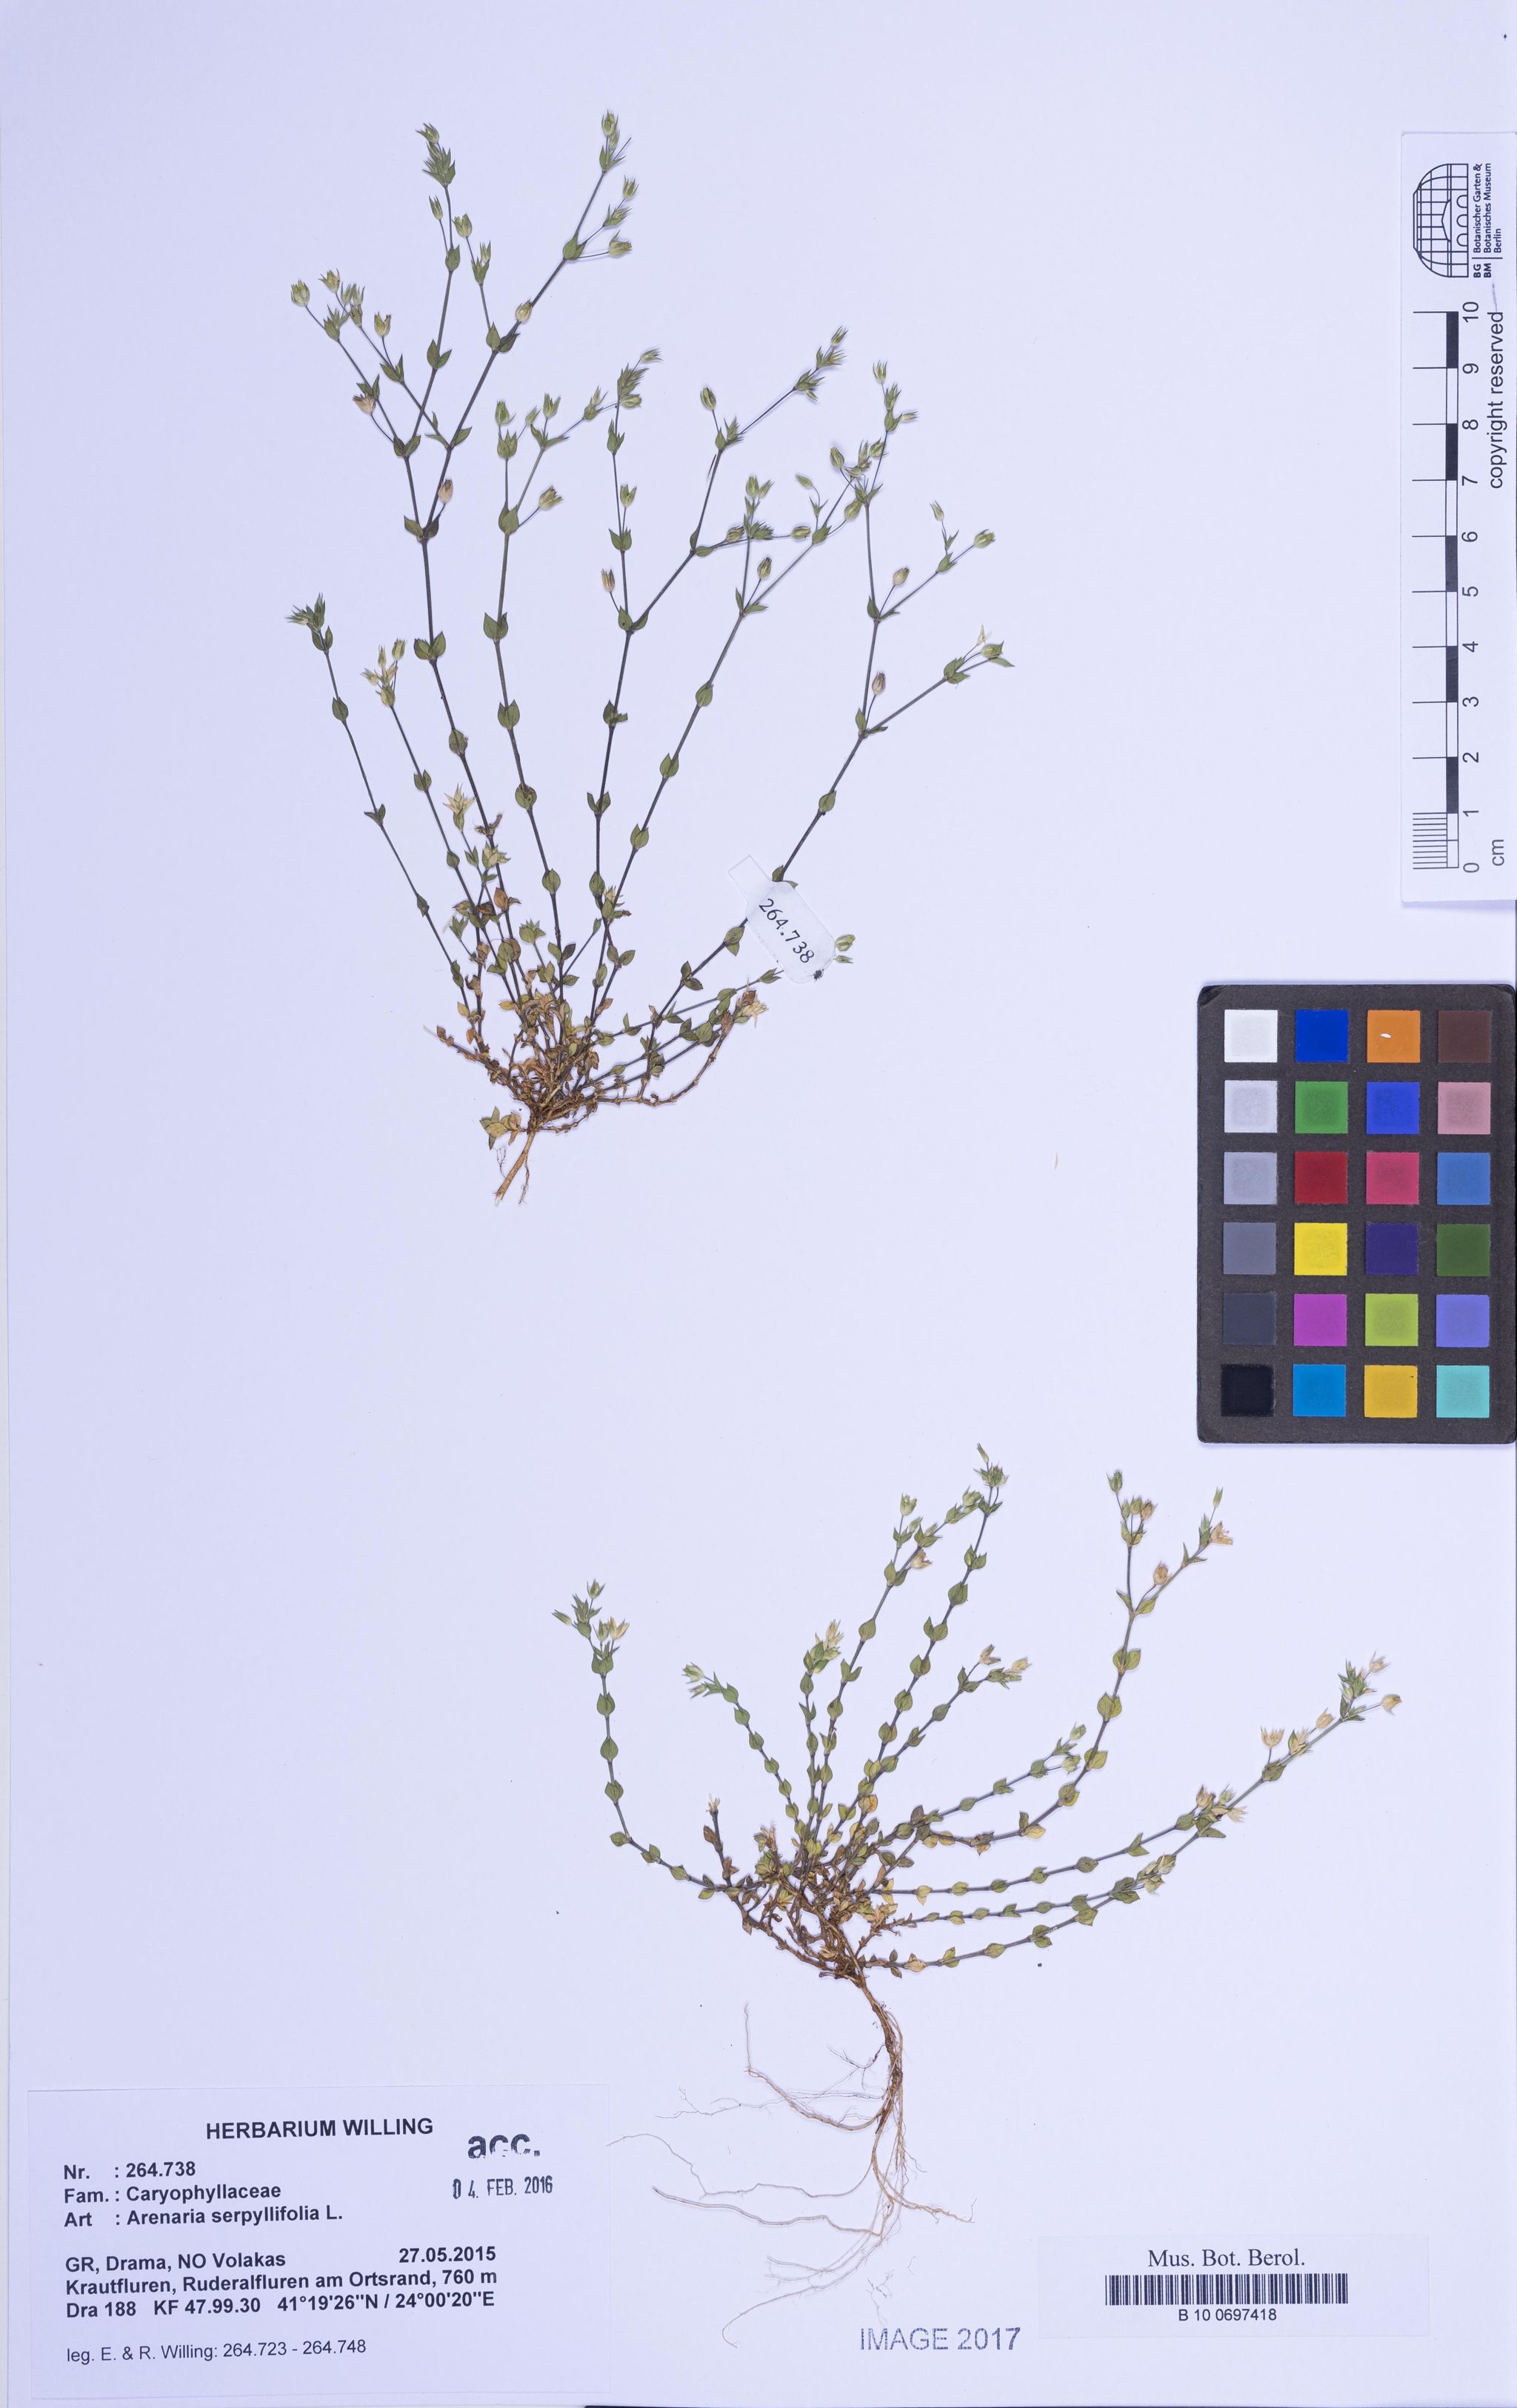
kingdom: Plantae
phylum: Tracheophyta
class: Magnoliopsida
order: Caryophyllales
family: Caryophyllaceae
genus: Arenaria
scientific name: Arenaria serpyllifolia
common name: Thyme-leaved sandwort
